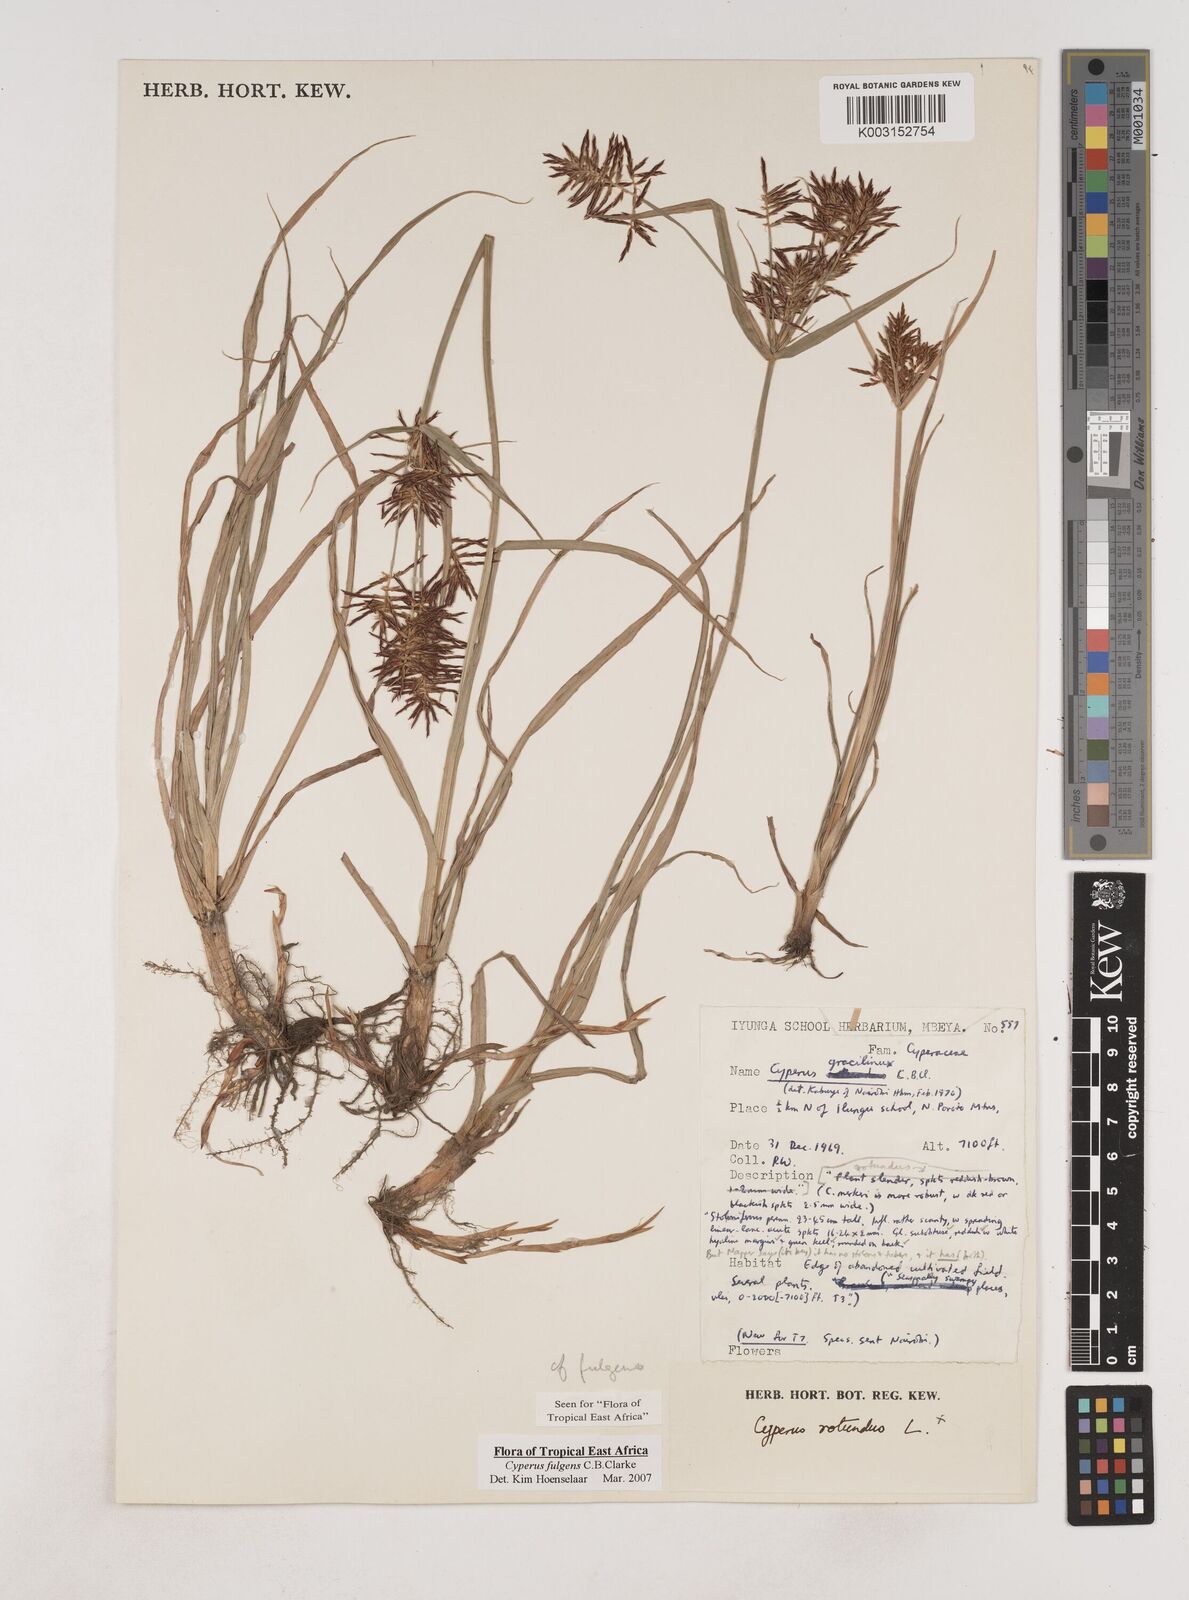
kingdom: Plantae
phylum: Tracheophyta
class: Liliopsida
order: Poales
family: Cyperaceae
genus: Cyperus
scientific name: Cyperus callistus
